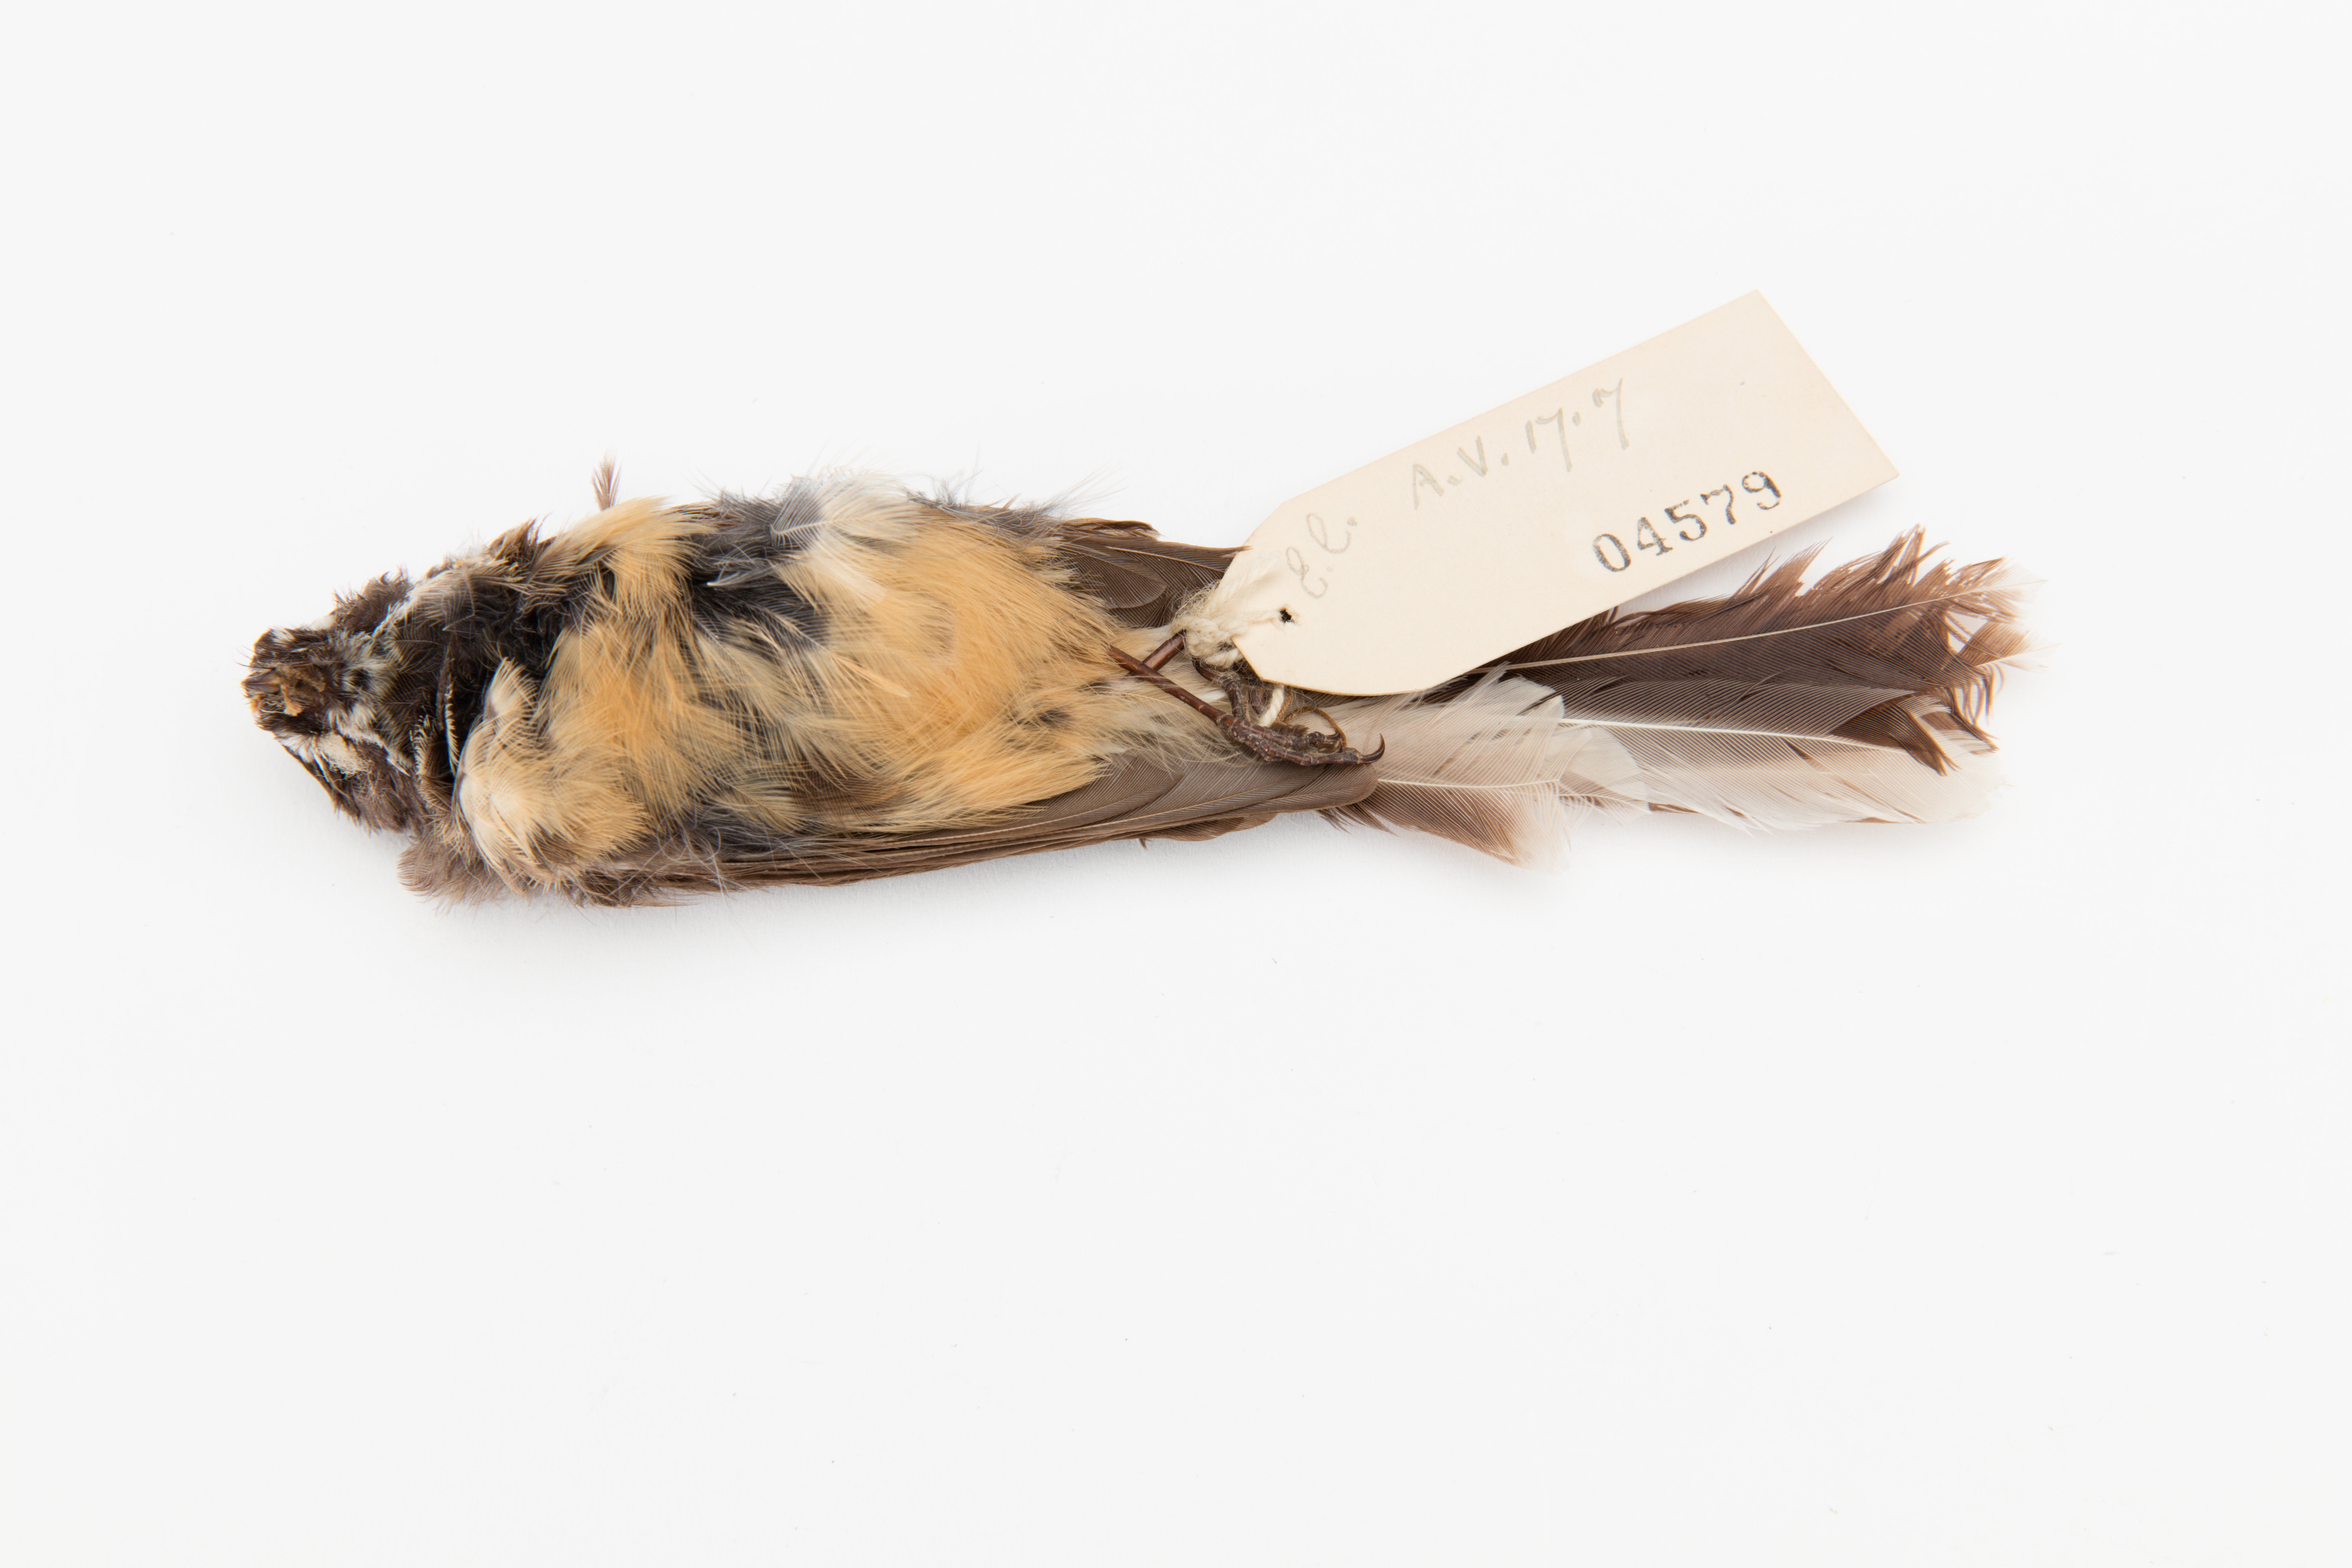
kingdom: Animalia
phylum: Chordata
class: Aves
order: Passeriformes
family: Rhipiduridae
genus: Rhipidura
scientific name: Rhipidura fuliginosa
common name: New zealand fantail
